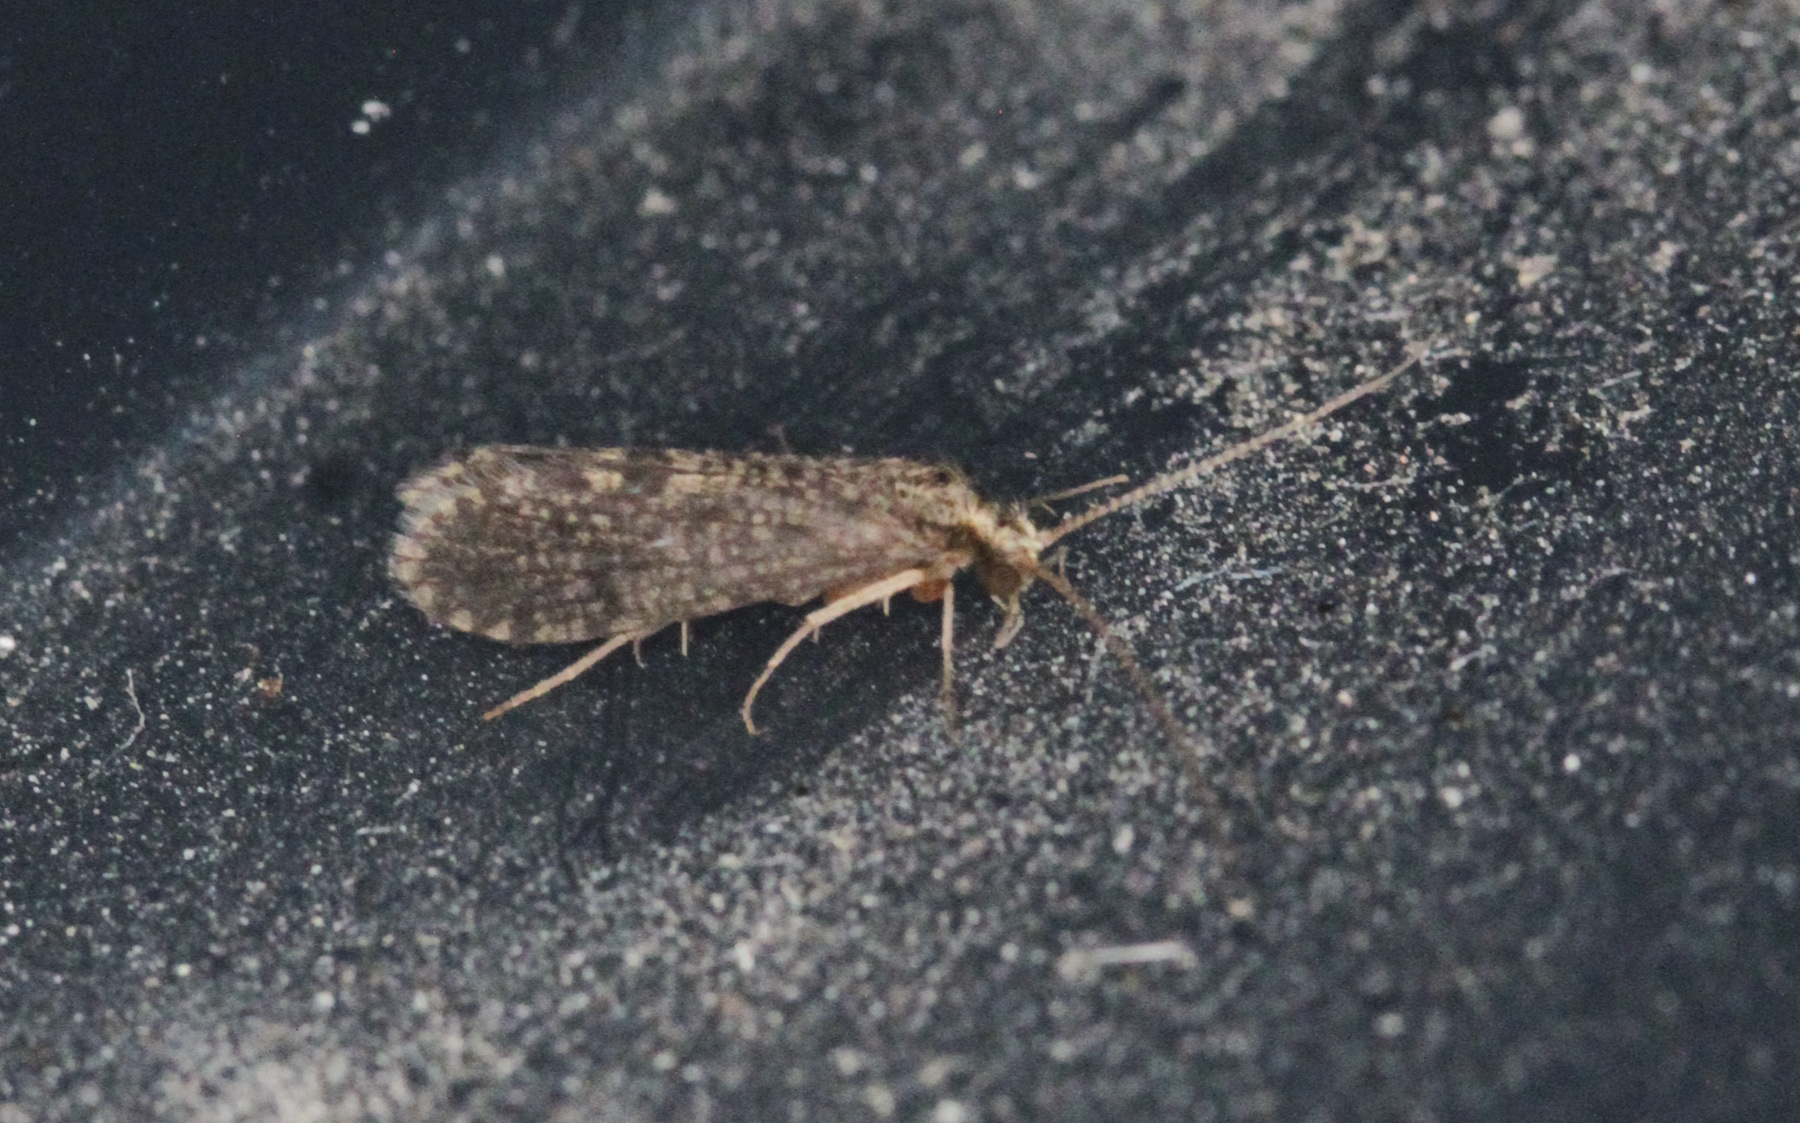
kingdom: Animalia
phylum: Arthropoda
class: Insecta
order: Trichoptera
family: Polycentropodidae
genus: Cyrnus
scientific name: Cyrnus trimaculatus
